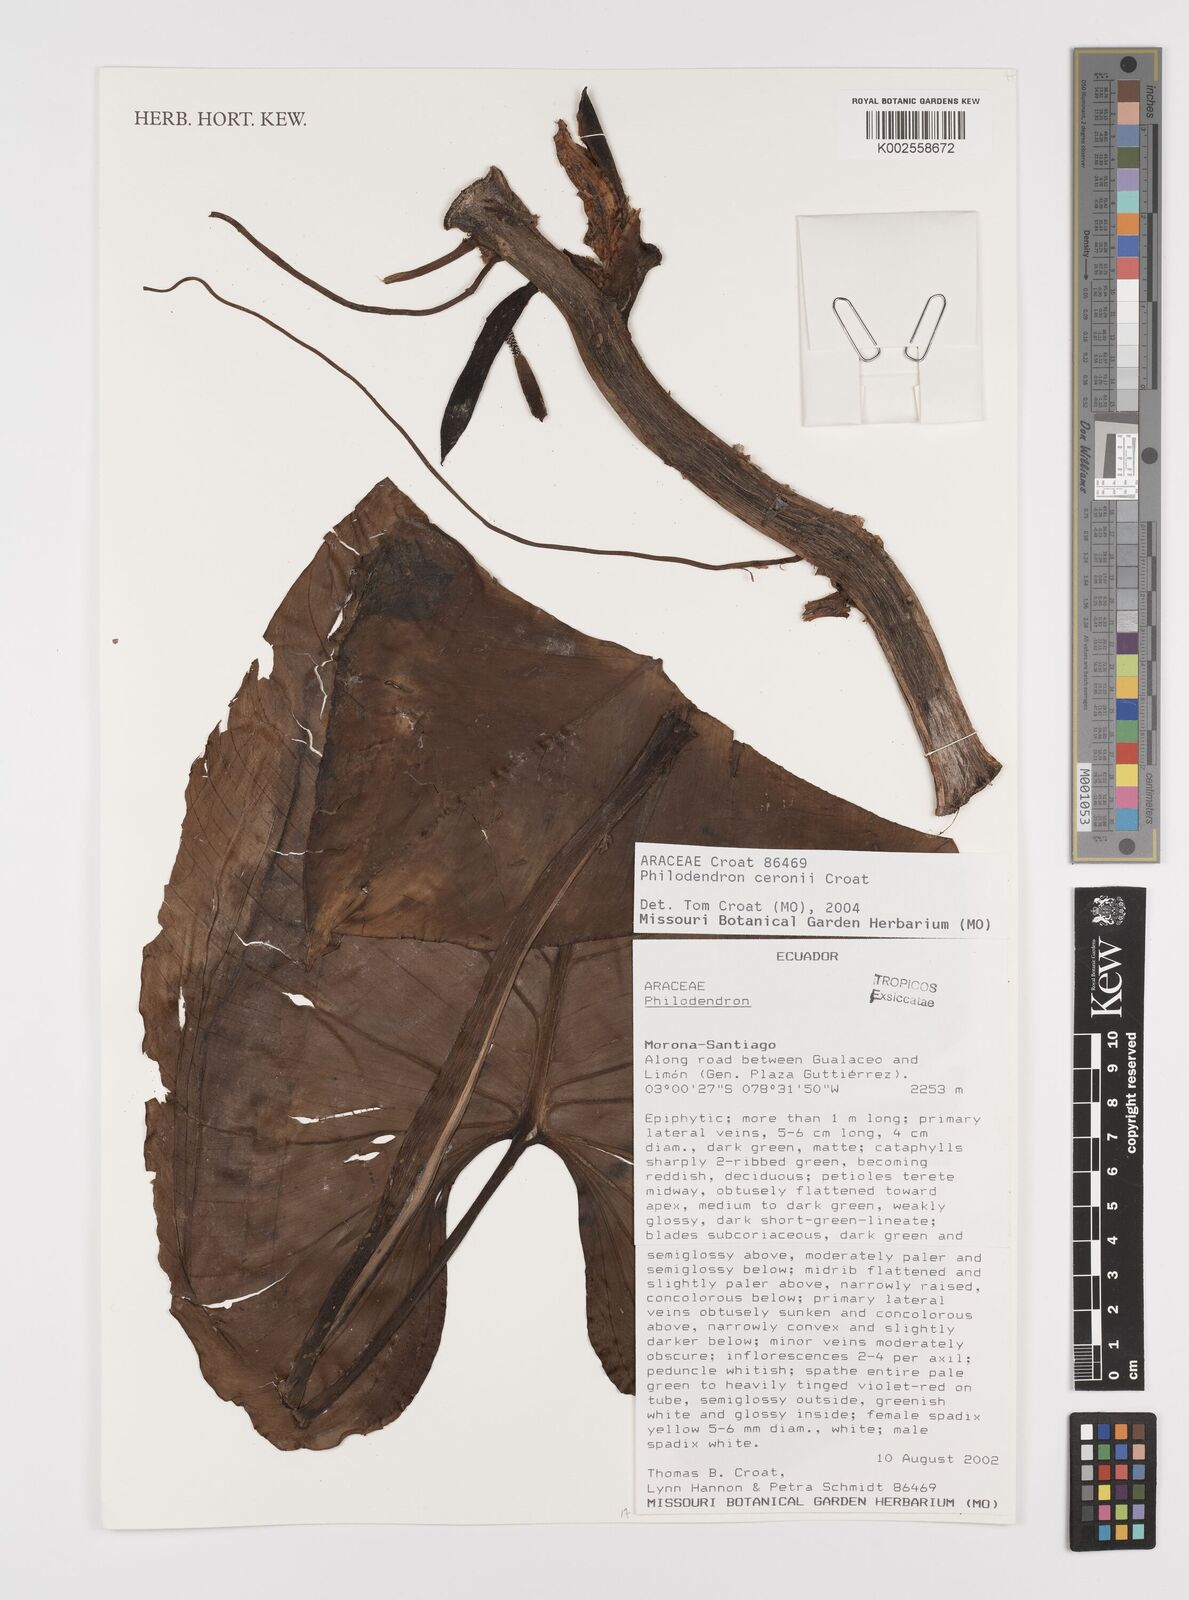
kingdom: Plantae
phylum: Tracheophyta
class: Liliopsida
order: Alismatales
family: Araceae
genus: Philodendron
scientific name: Philodendron
